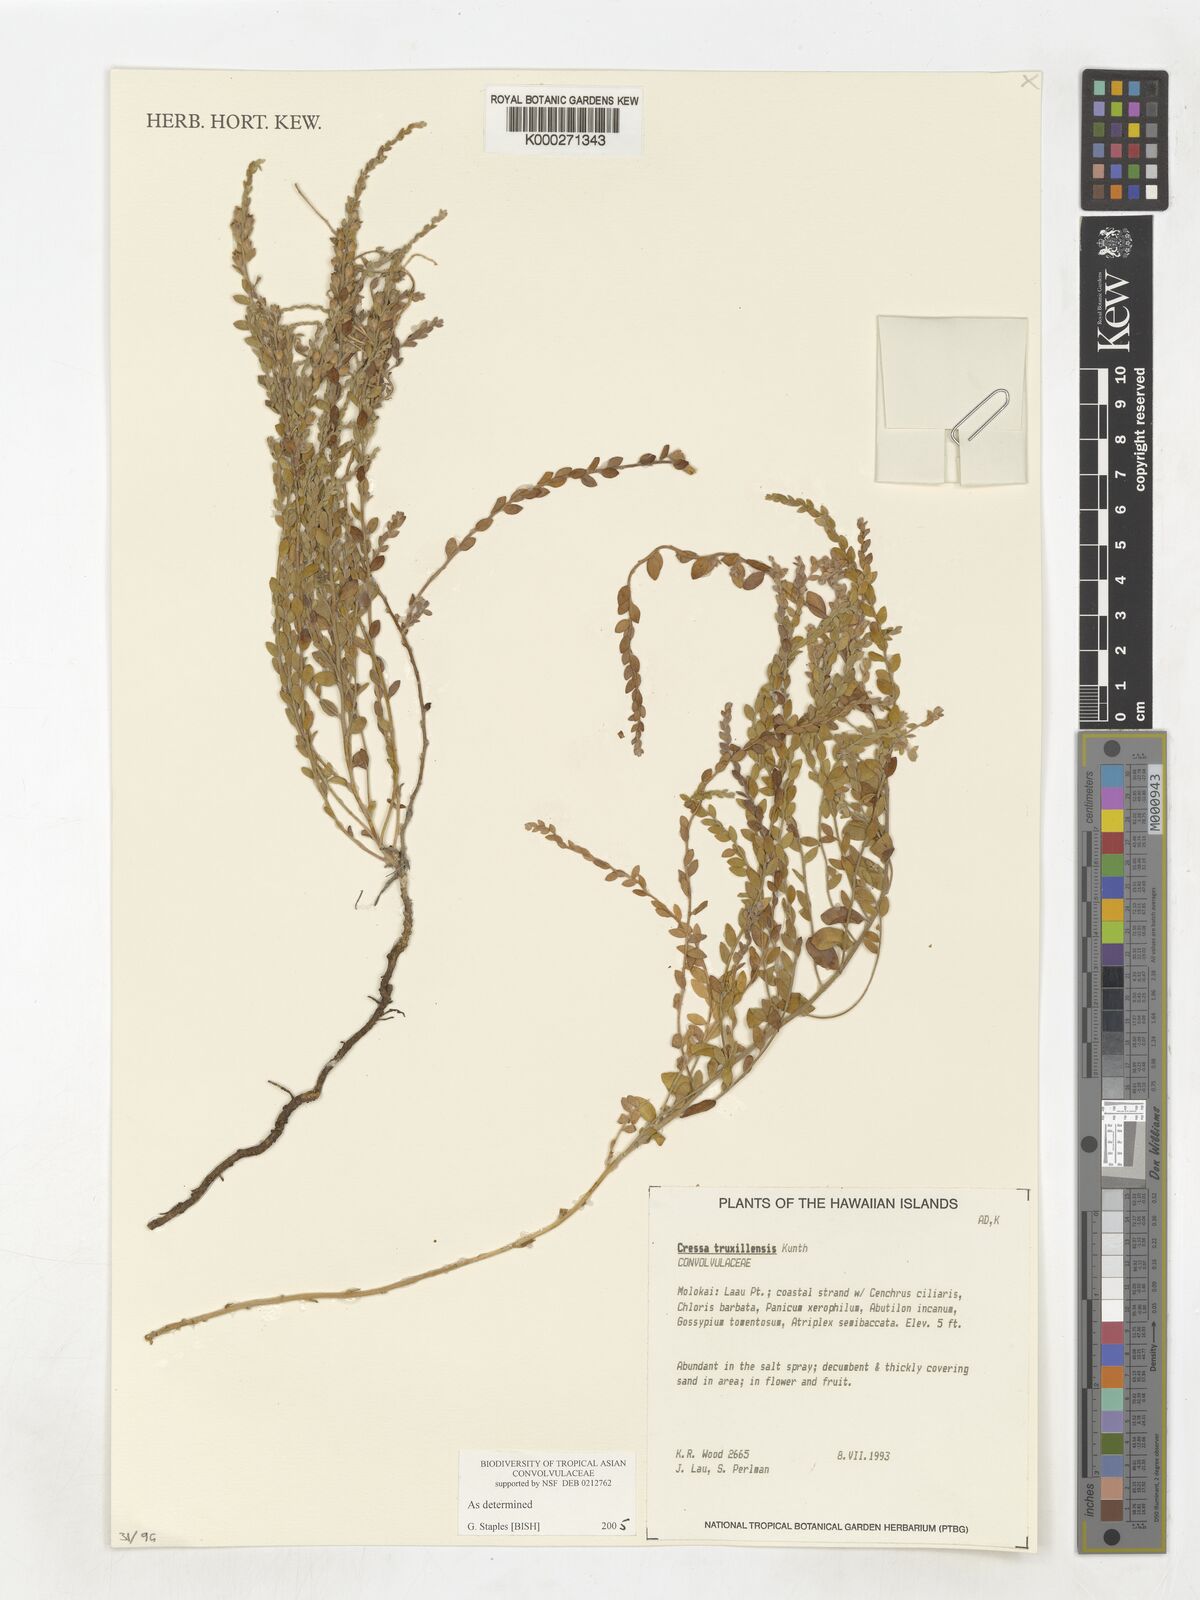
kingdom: Plantae
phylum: Tracheophyta
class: Magnoliopsida
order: Solanales
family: Convolvulaceae
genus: Cressa
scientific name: Cressa truxillensis
